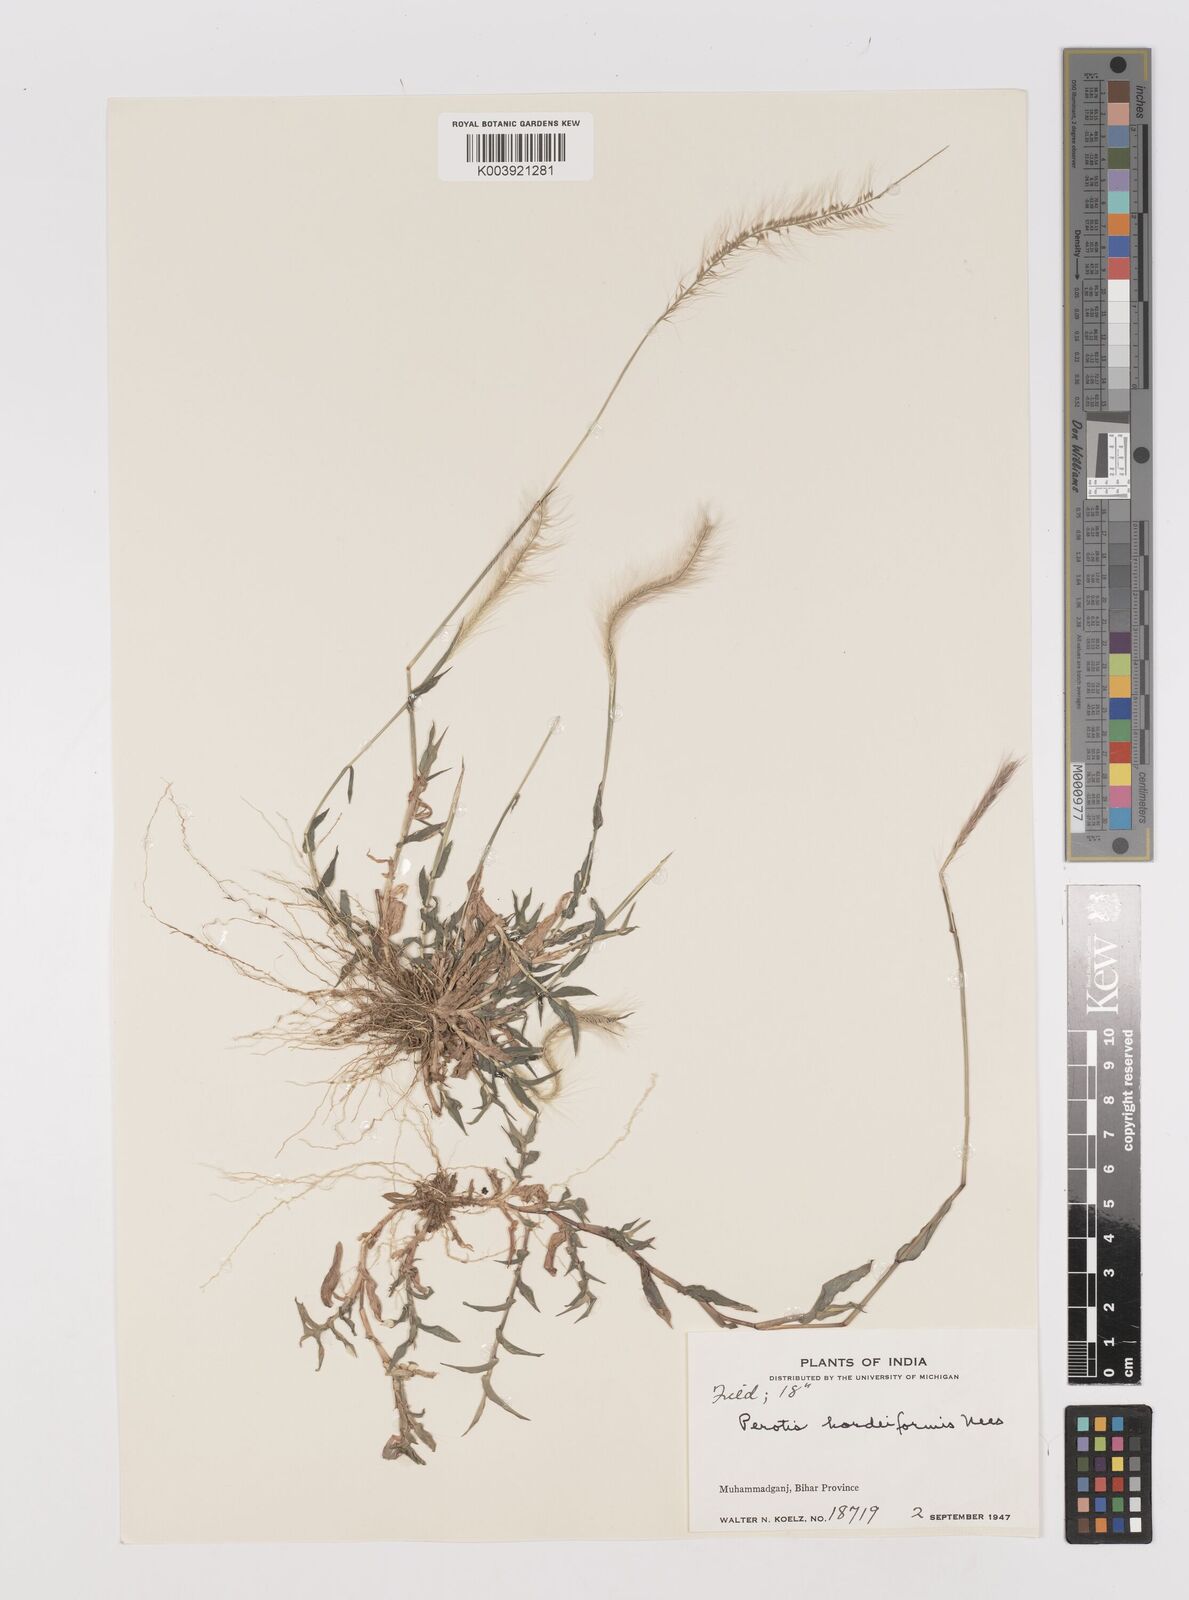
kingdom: Plantae
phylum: Tracheophyta
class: Liliopsida
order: Poales
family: Poaceae
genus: Perotis
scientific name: Perotis hordeiformis
